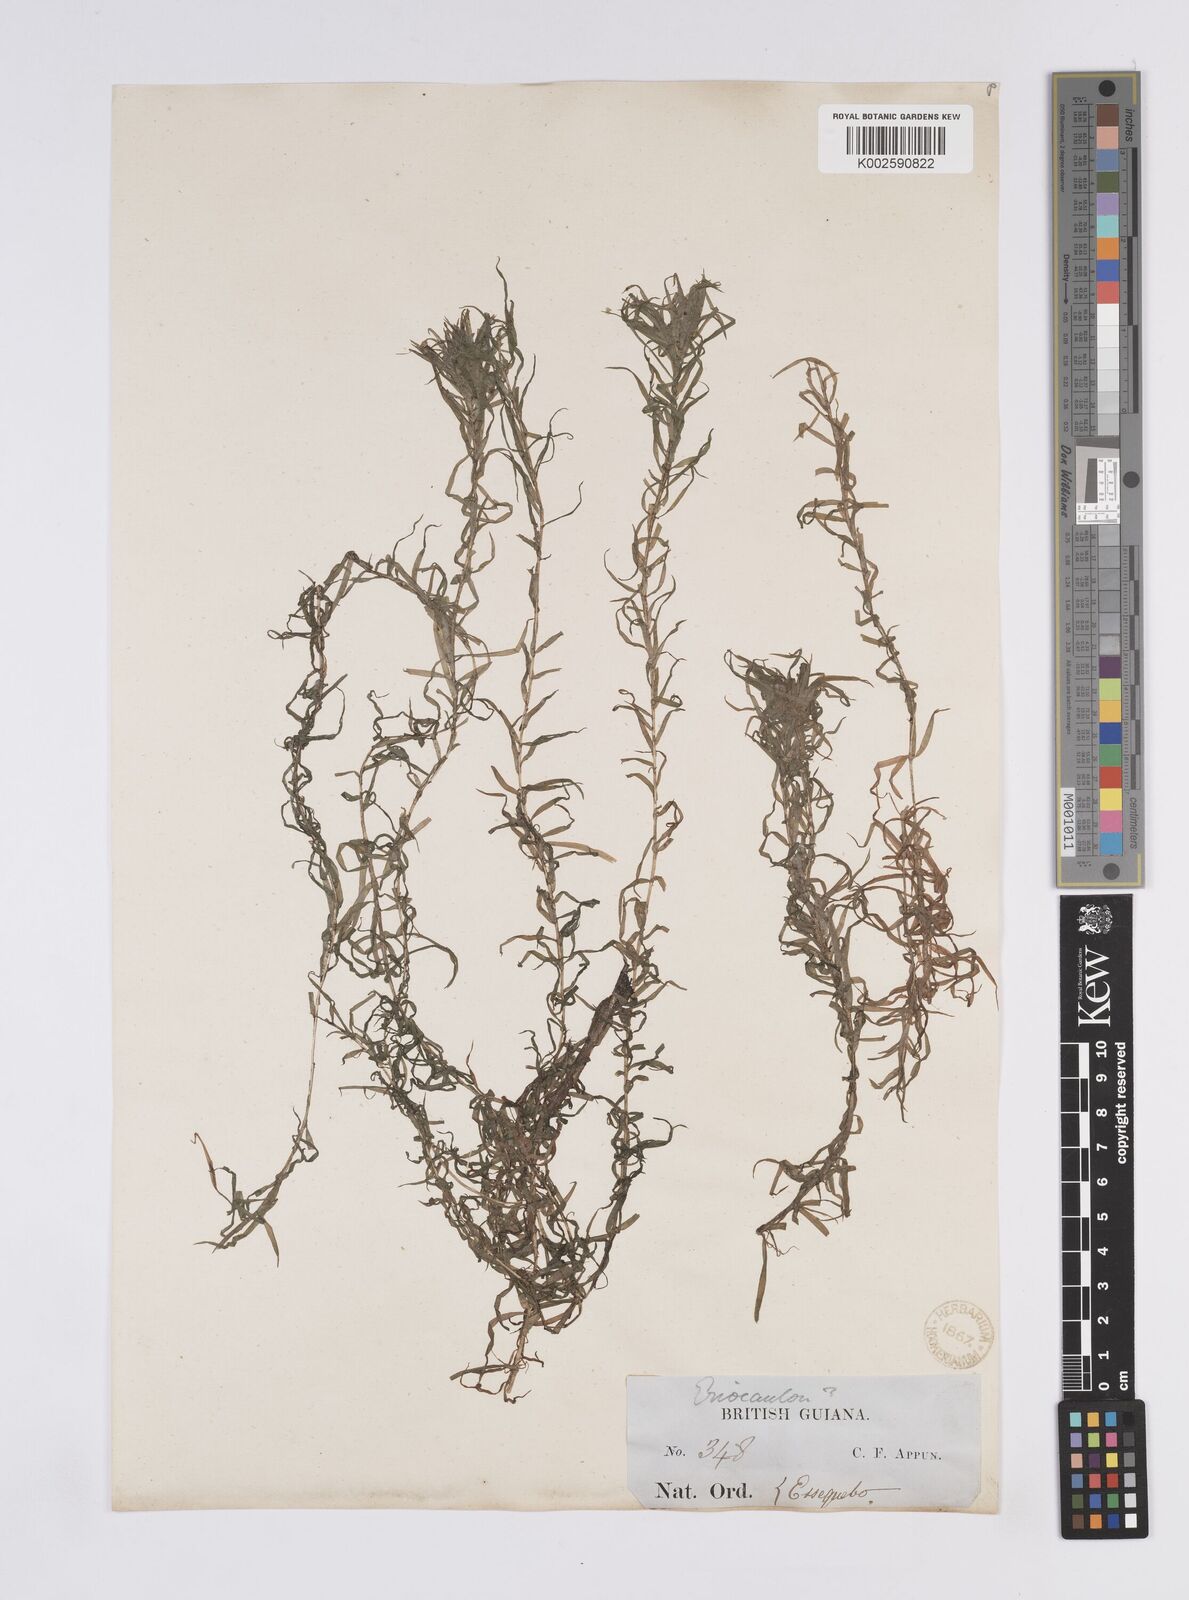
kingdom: Plantae
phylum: Tracheophyta
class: Liliopsida
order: Poales
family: Eriocaulaceae
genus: Paepalanthus
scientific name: Paepalanthus fluviatilis
